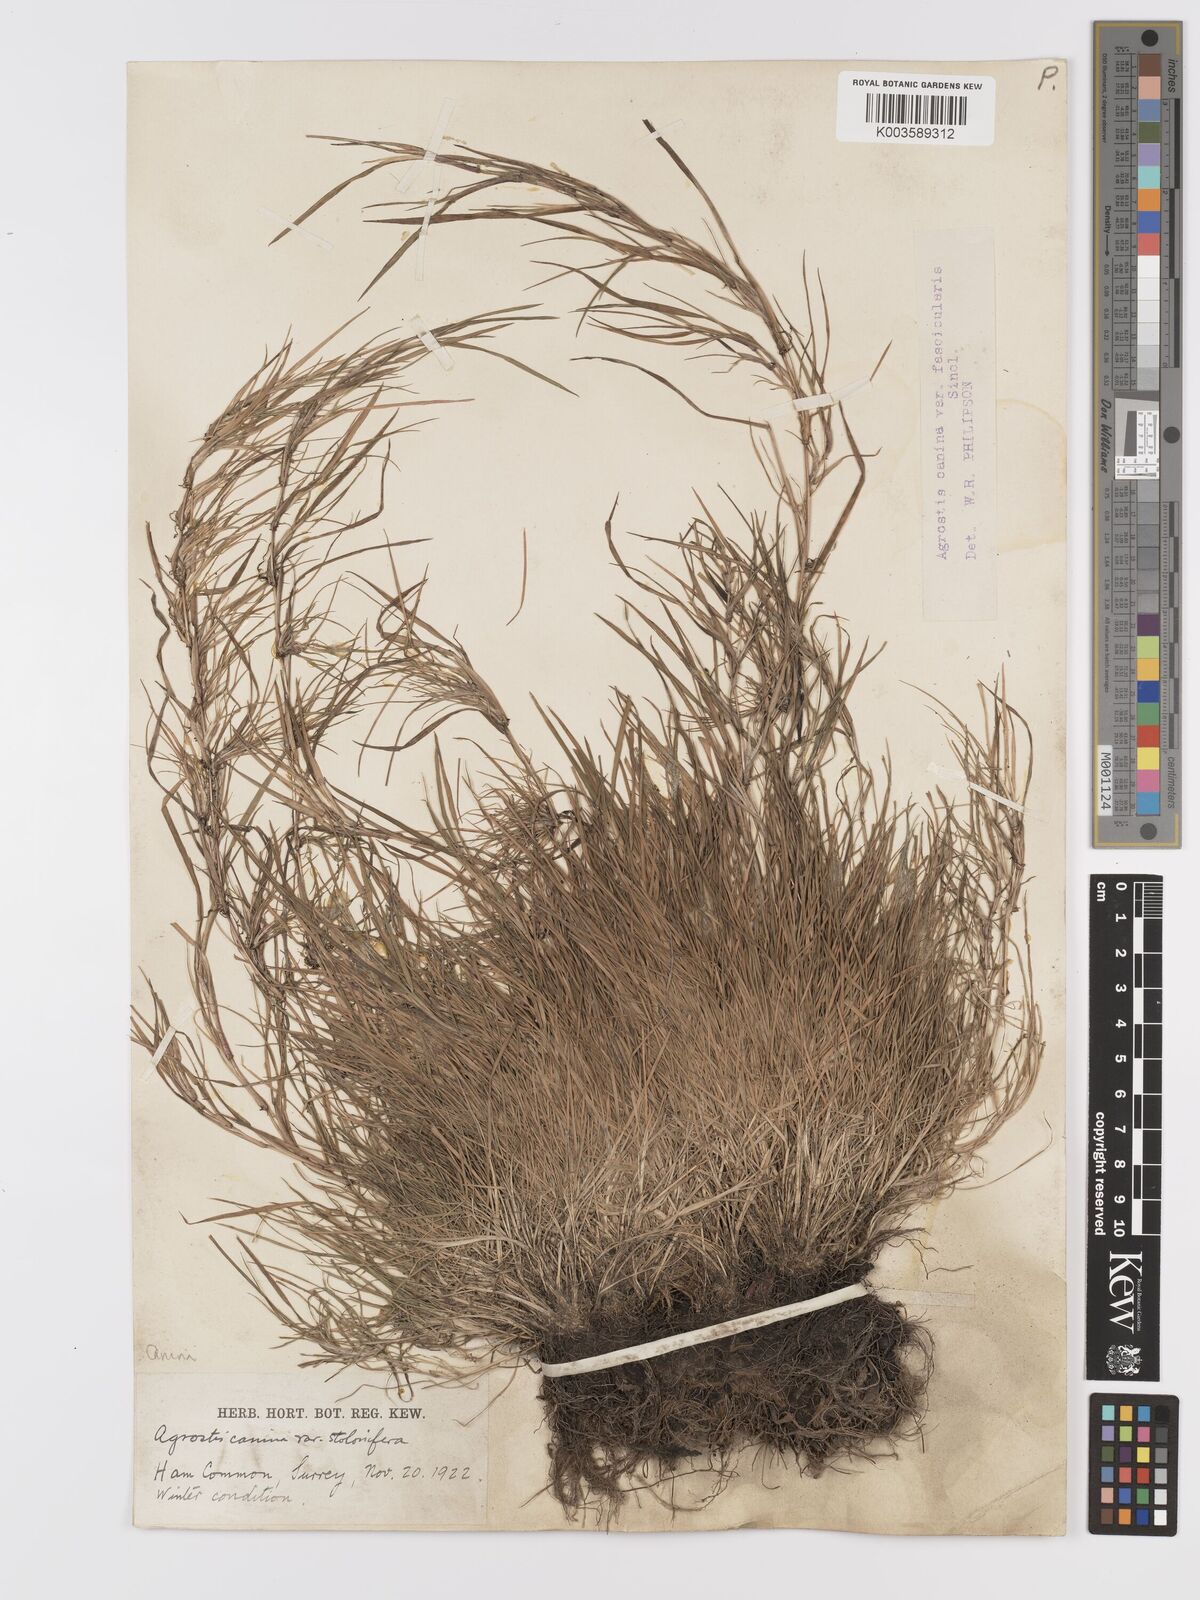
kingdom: Plantae
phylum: Tracheophyta
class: Liliopsida
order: Poales
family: Poaceae
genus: Agrostis
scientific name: Agrostis canina
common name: Velvet bent
